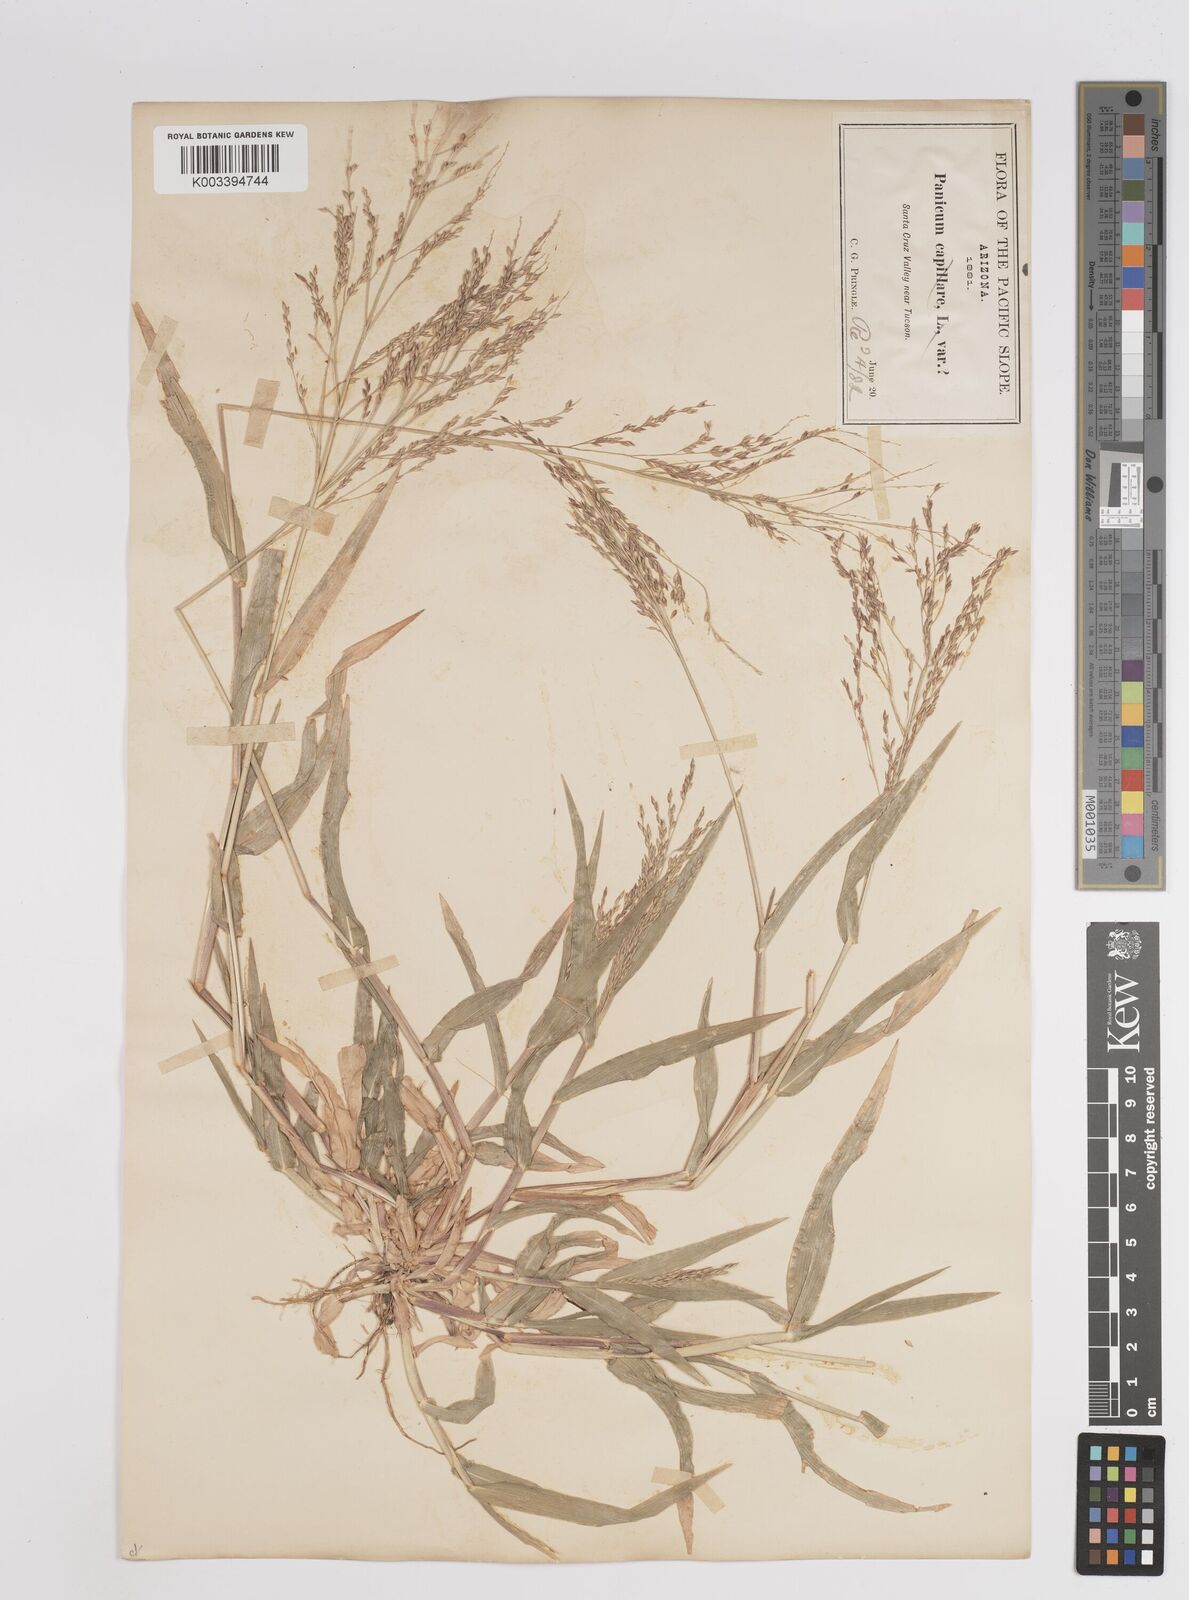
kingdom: Plantae
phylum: Tracheophyta
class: Liliopsida
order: Poales
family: Poaceae
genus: Panicum
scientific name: Panicum hallii
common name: Hall's witchgrass
